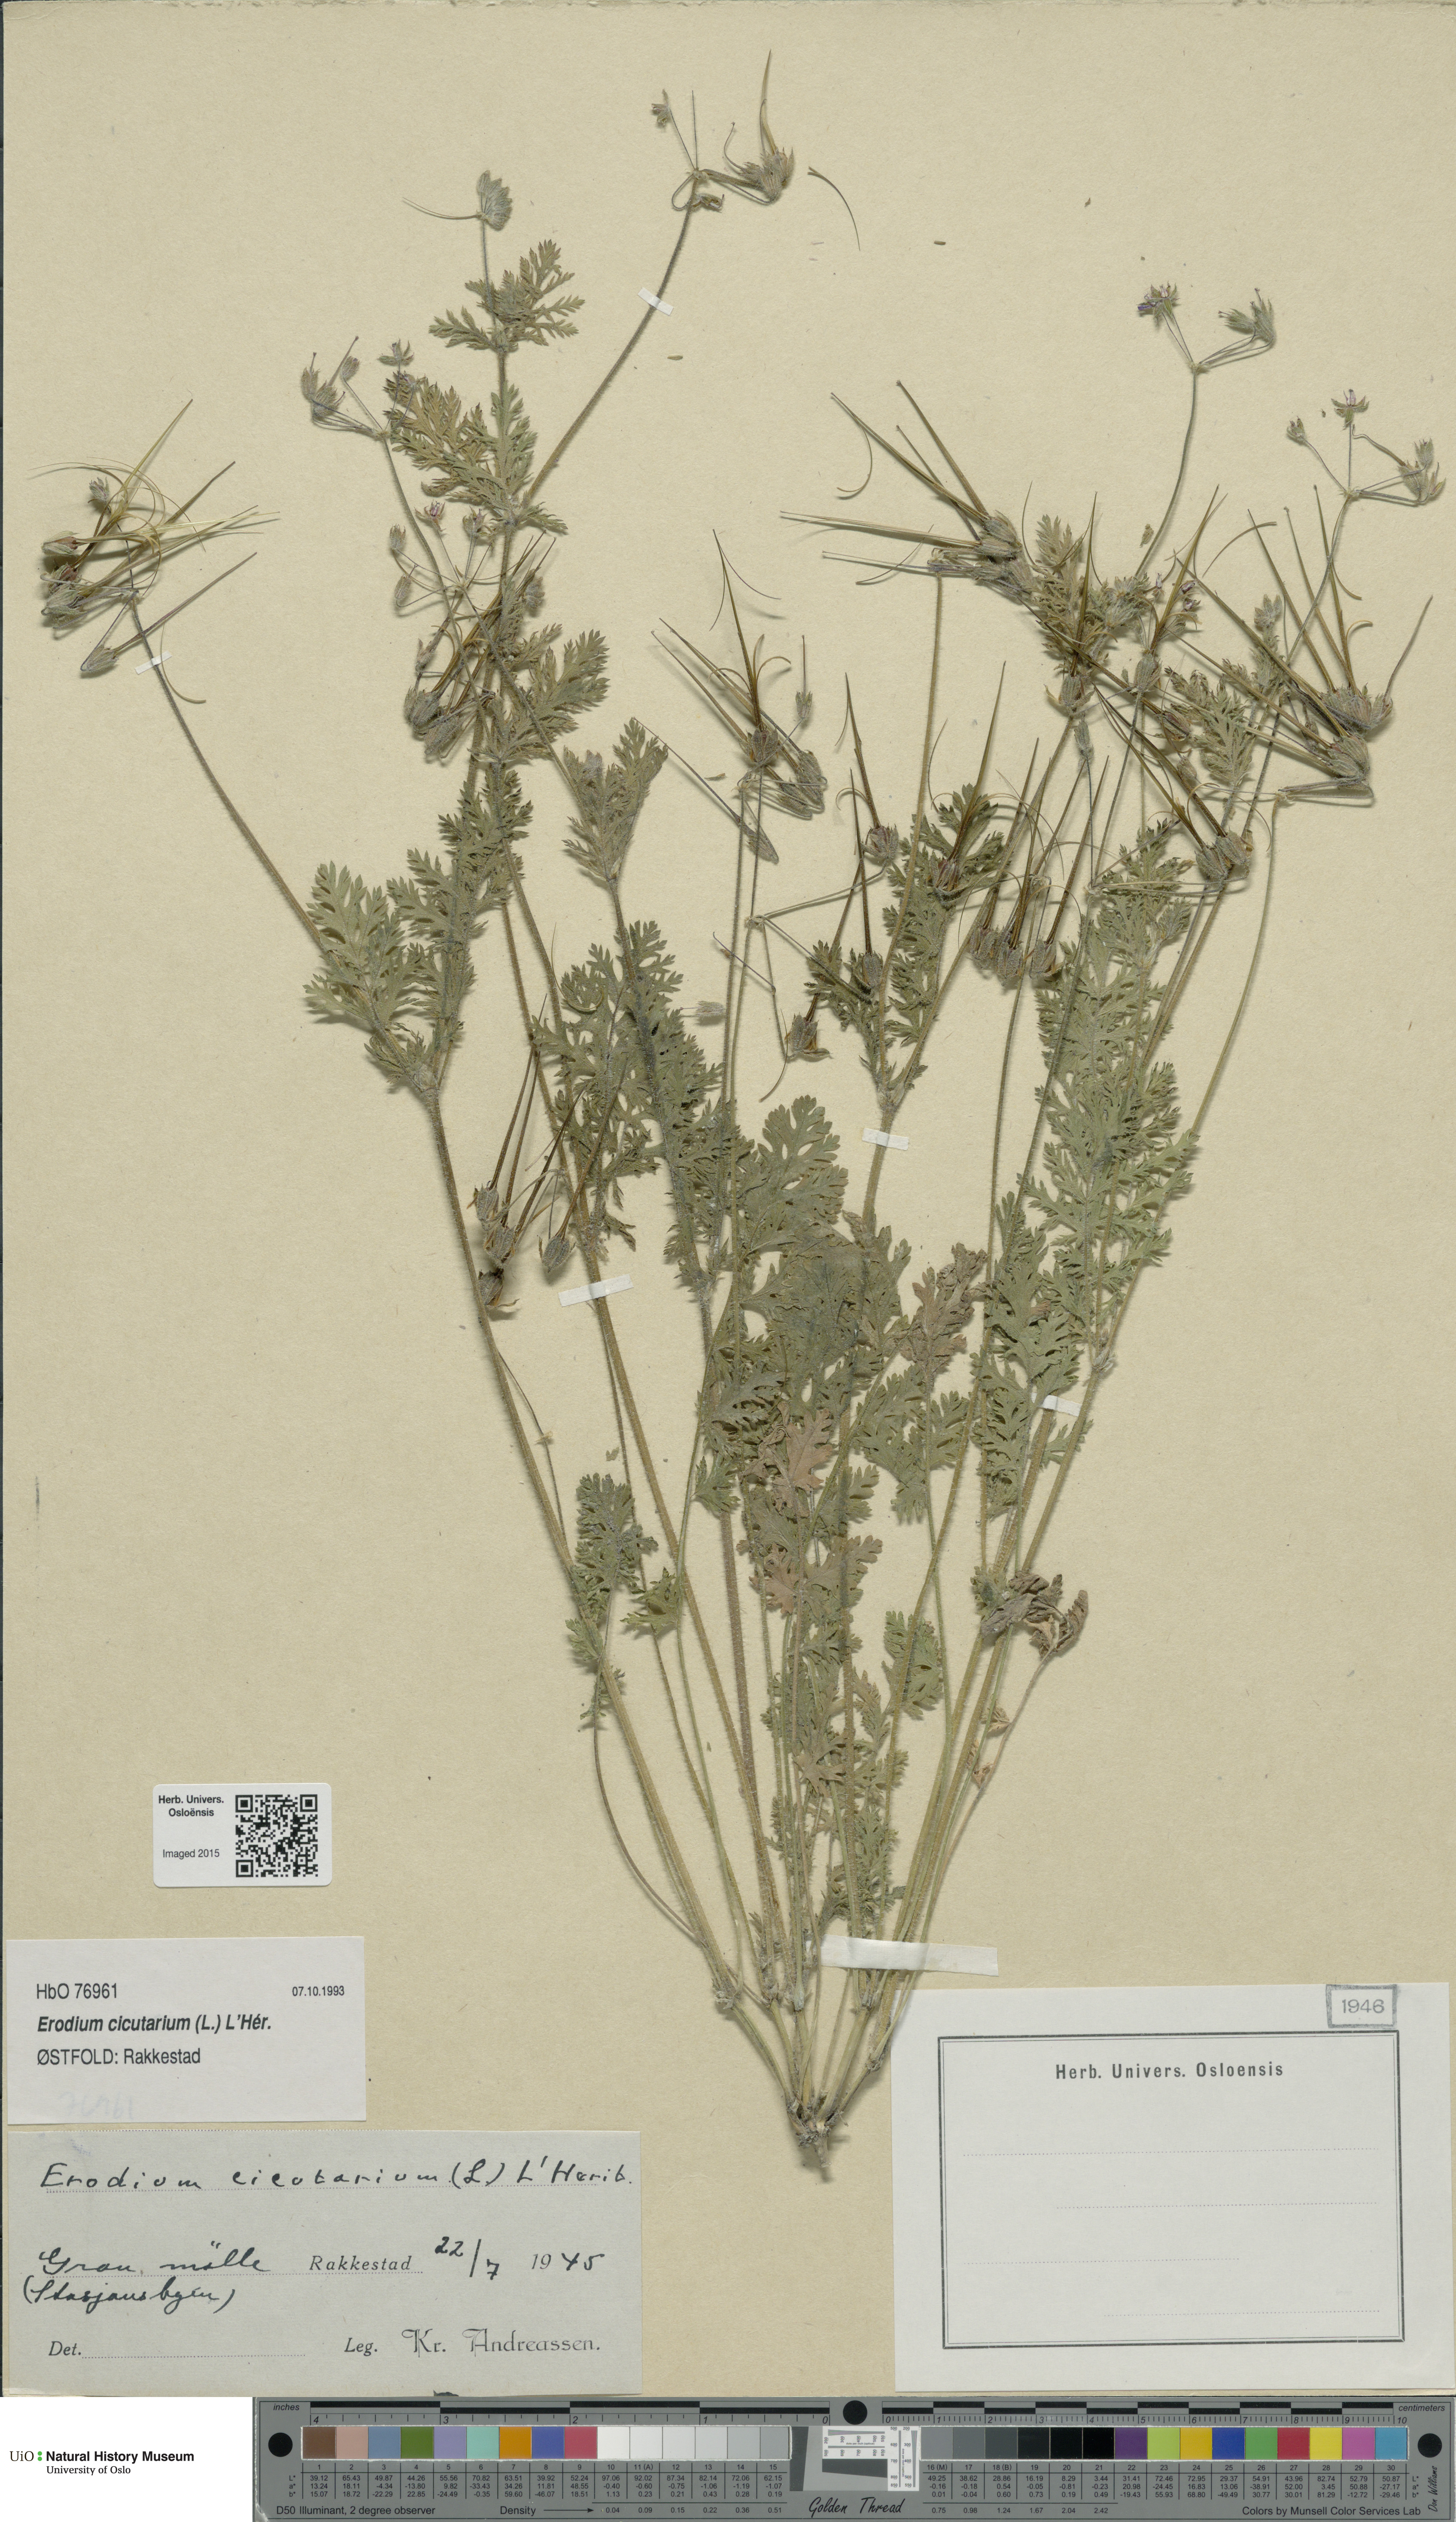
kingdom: Plantae
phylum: Tracheophyta
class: Magnoliopsida
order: Geraniales
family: Geraniaceae
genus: Erodium
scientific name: Erodium cicutarium
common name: Common stork's-bill
